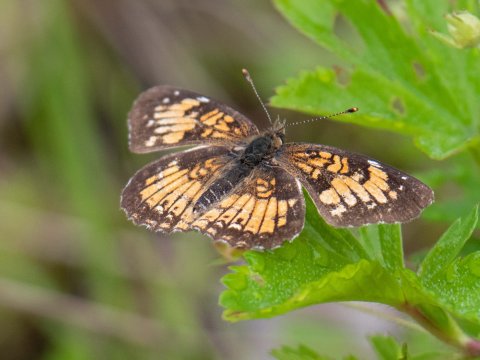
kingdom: Animalia
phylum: Arthropoda
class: Insecta
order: Lepidoptera
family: Nymphalidae
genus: Chlosyne
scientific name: Chlosyne harrisii
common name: Harris's Checkerspot
